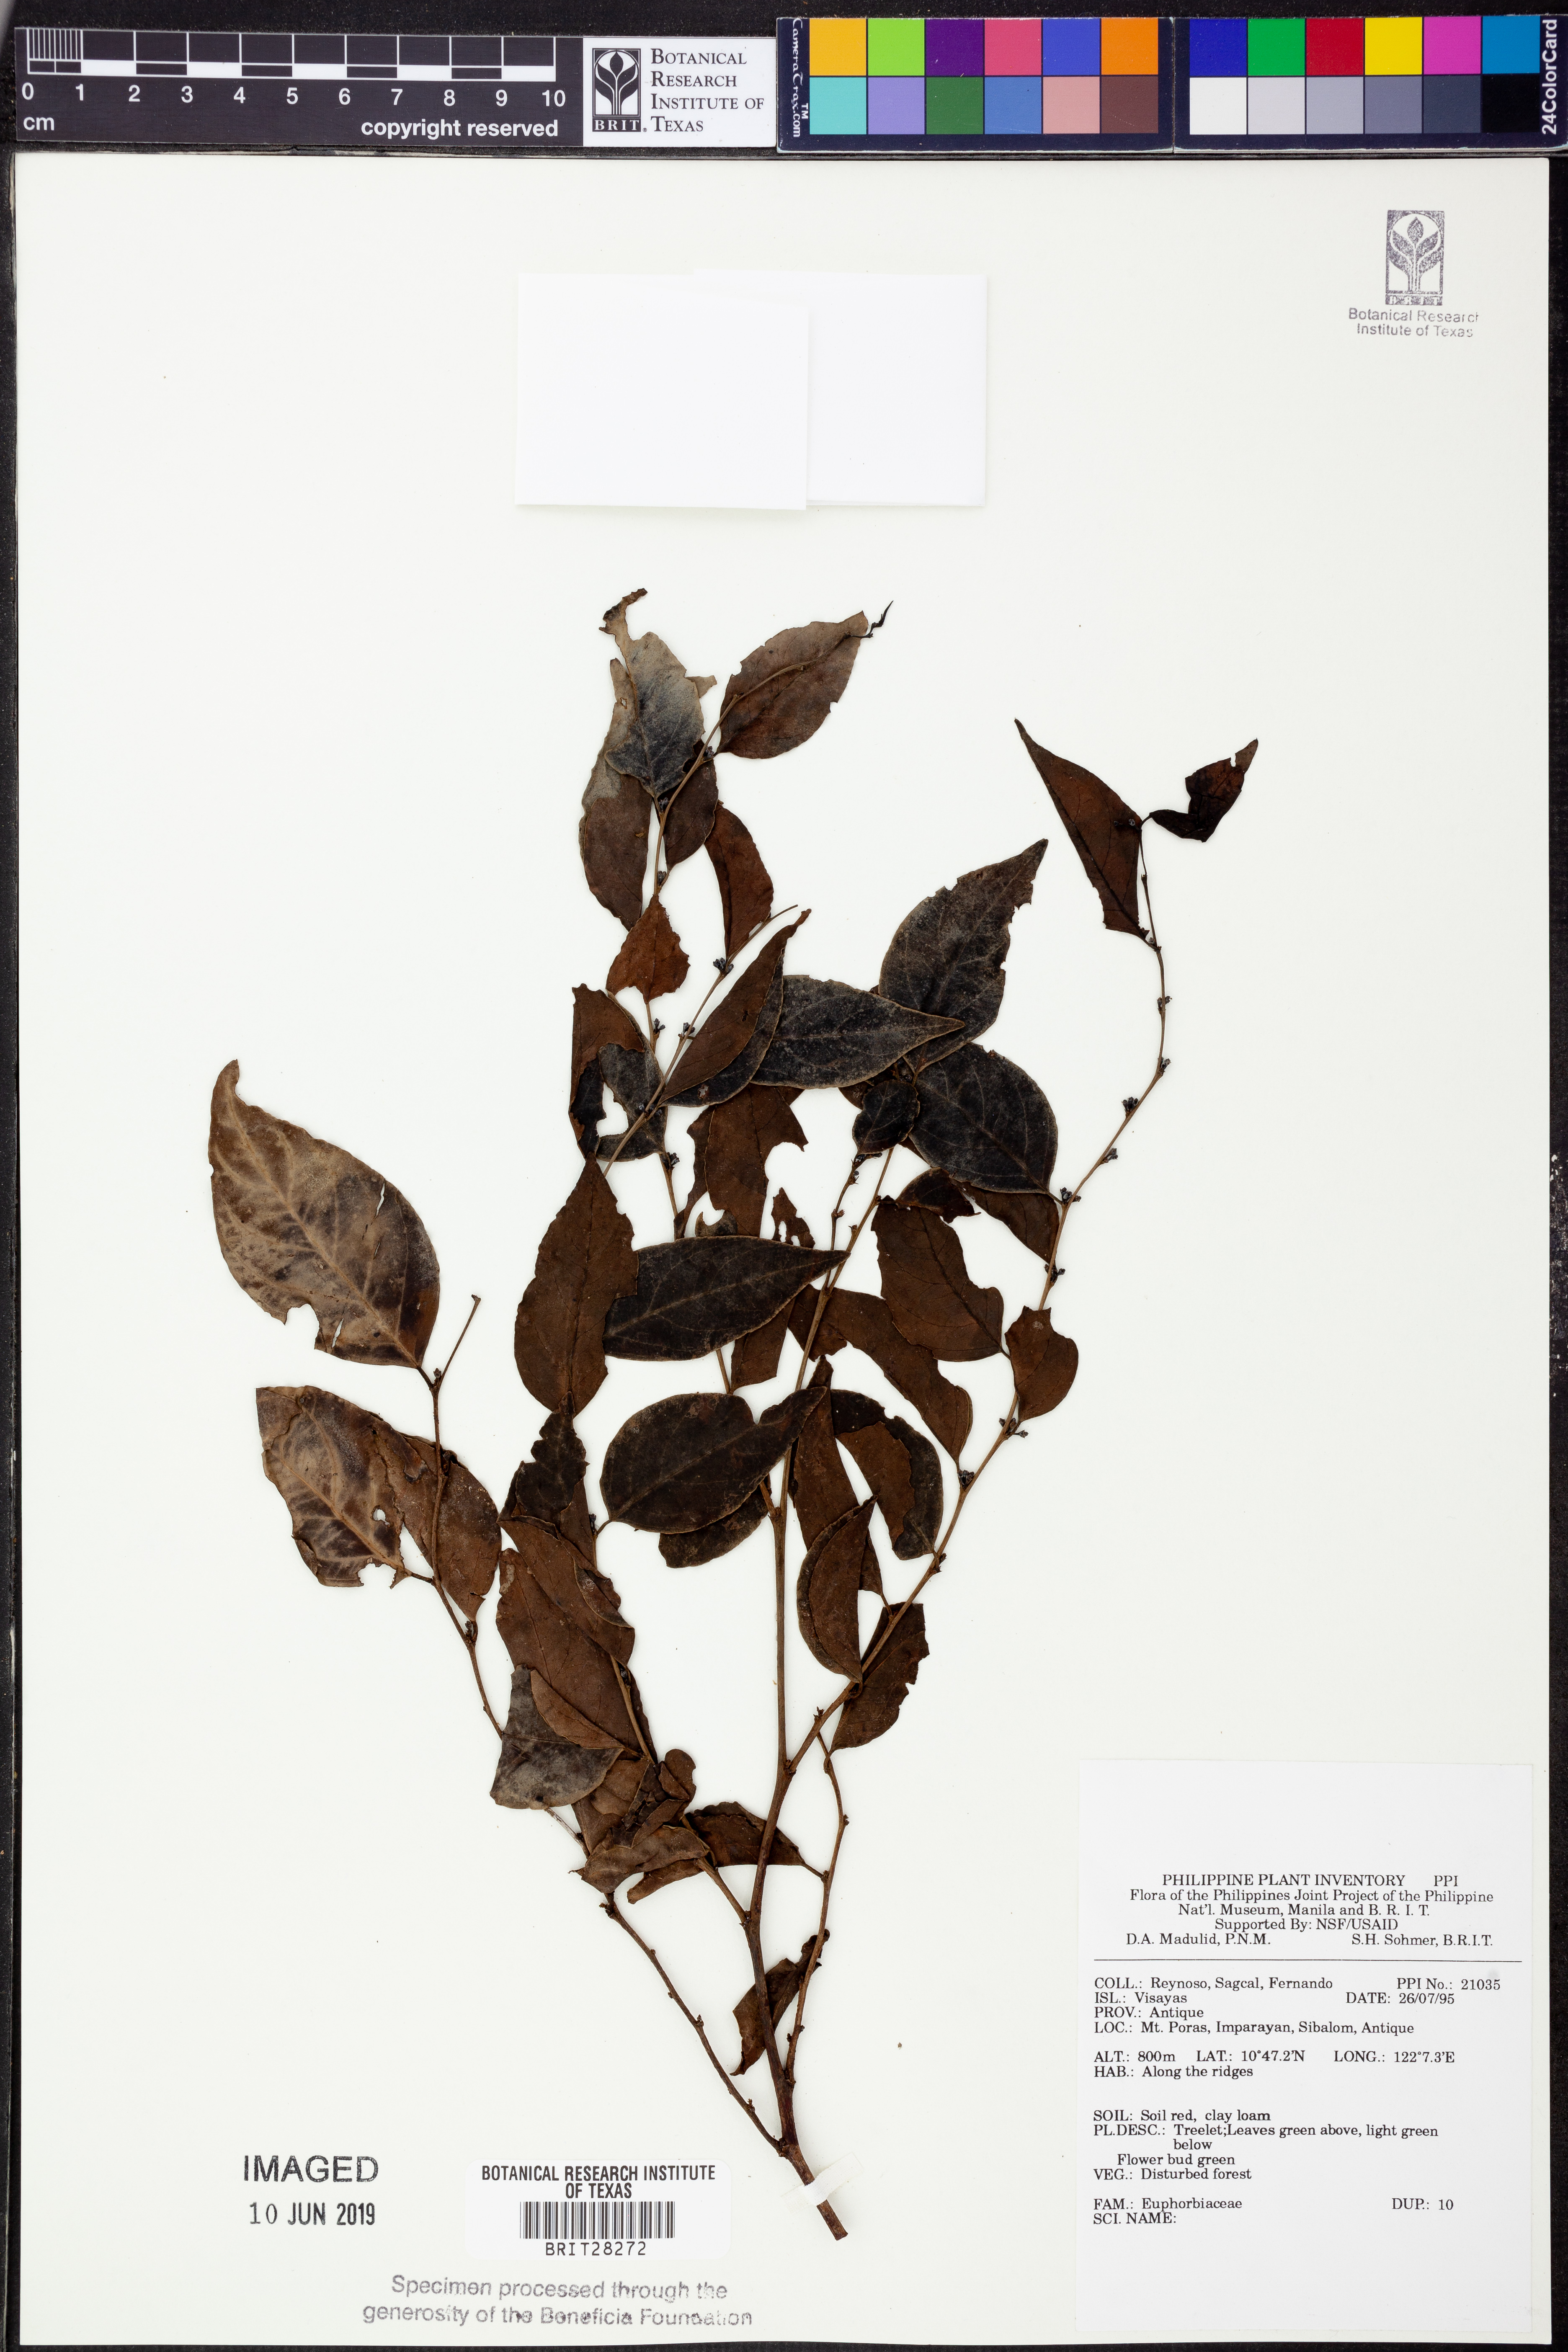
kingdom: Plantae
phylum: Tracheophyta
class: Magnoliopsida
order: Malpighiales
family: Euphorbiaceae
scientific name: Euphorbiaceae
